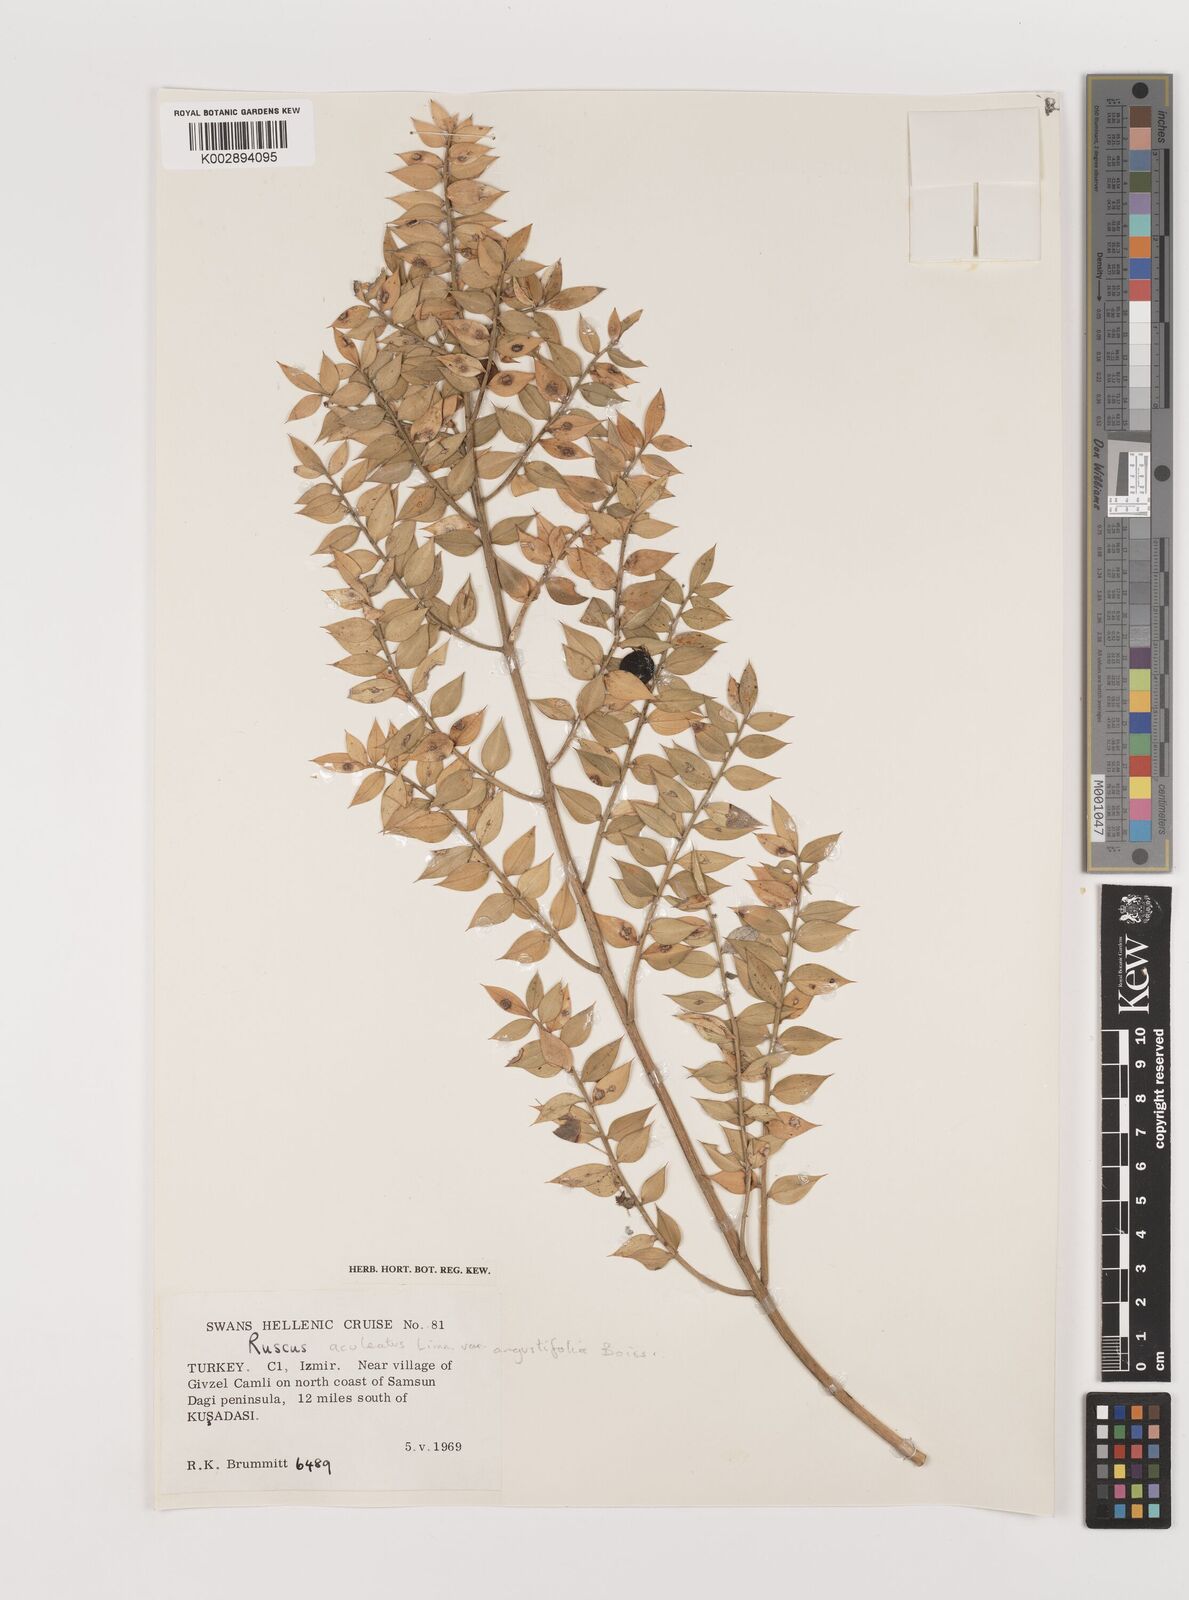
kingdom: Plantae
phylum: Tracheophyta
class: Liliopsida
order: Asparagales
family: Asparagaceae
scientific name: Asparagaceae
